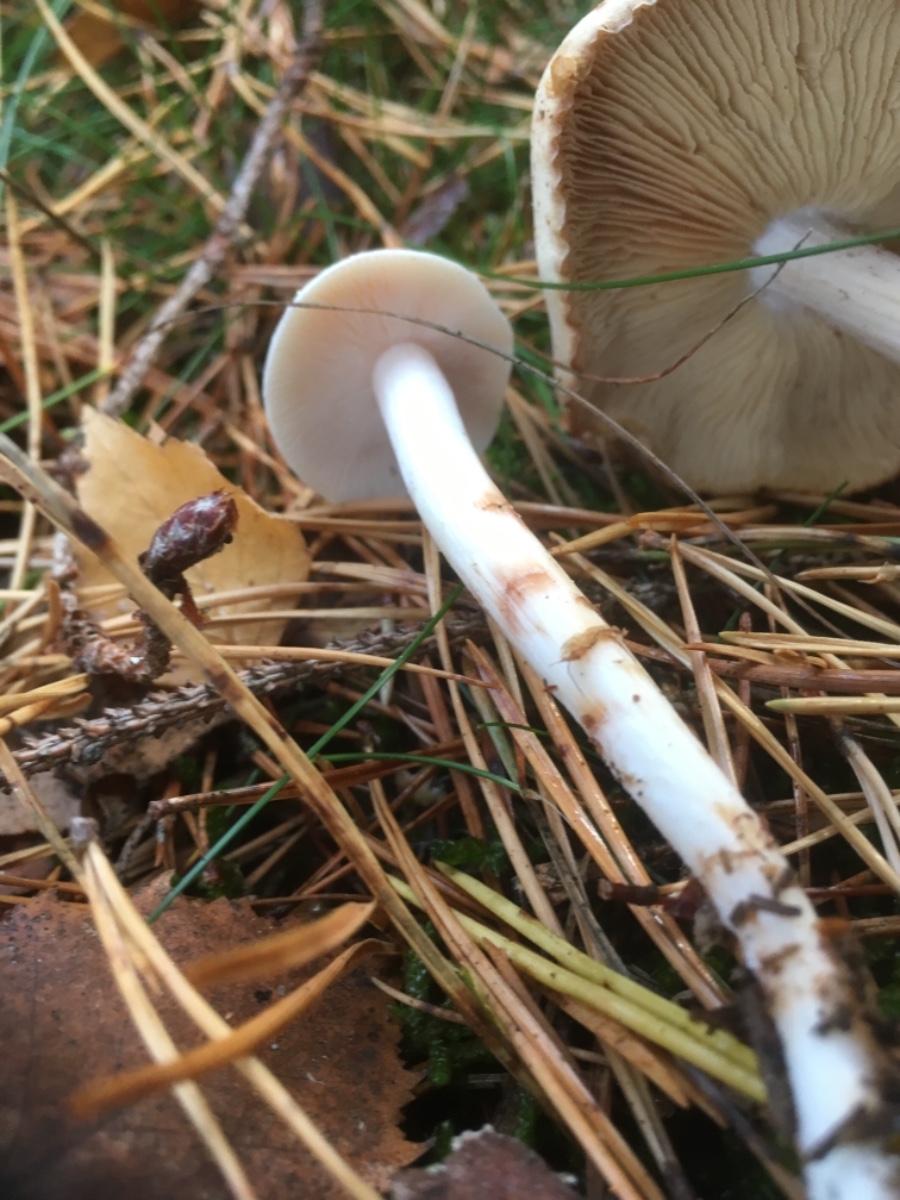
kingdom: Fungi
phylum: Basidiomycota
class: Agaricomycetes
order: Agaricales
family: Omphalotaceae
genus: Rhodocollybia
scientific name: Rhodocollybia maculata
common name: plettet fladhat
